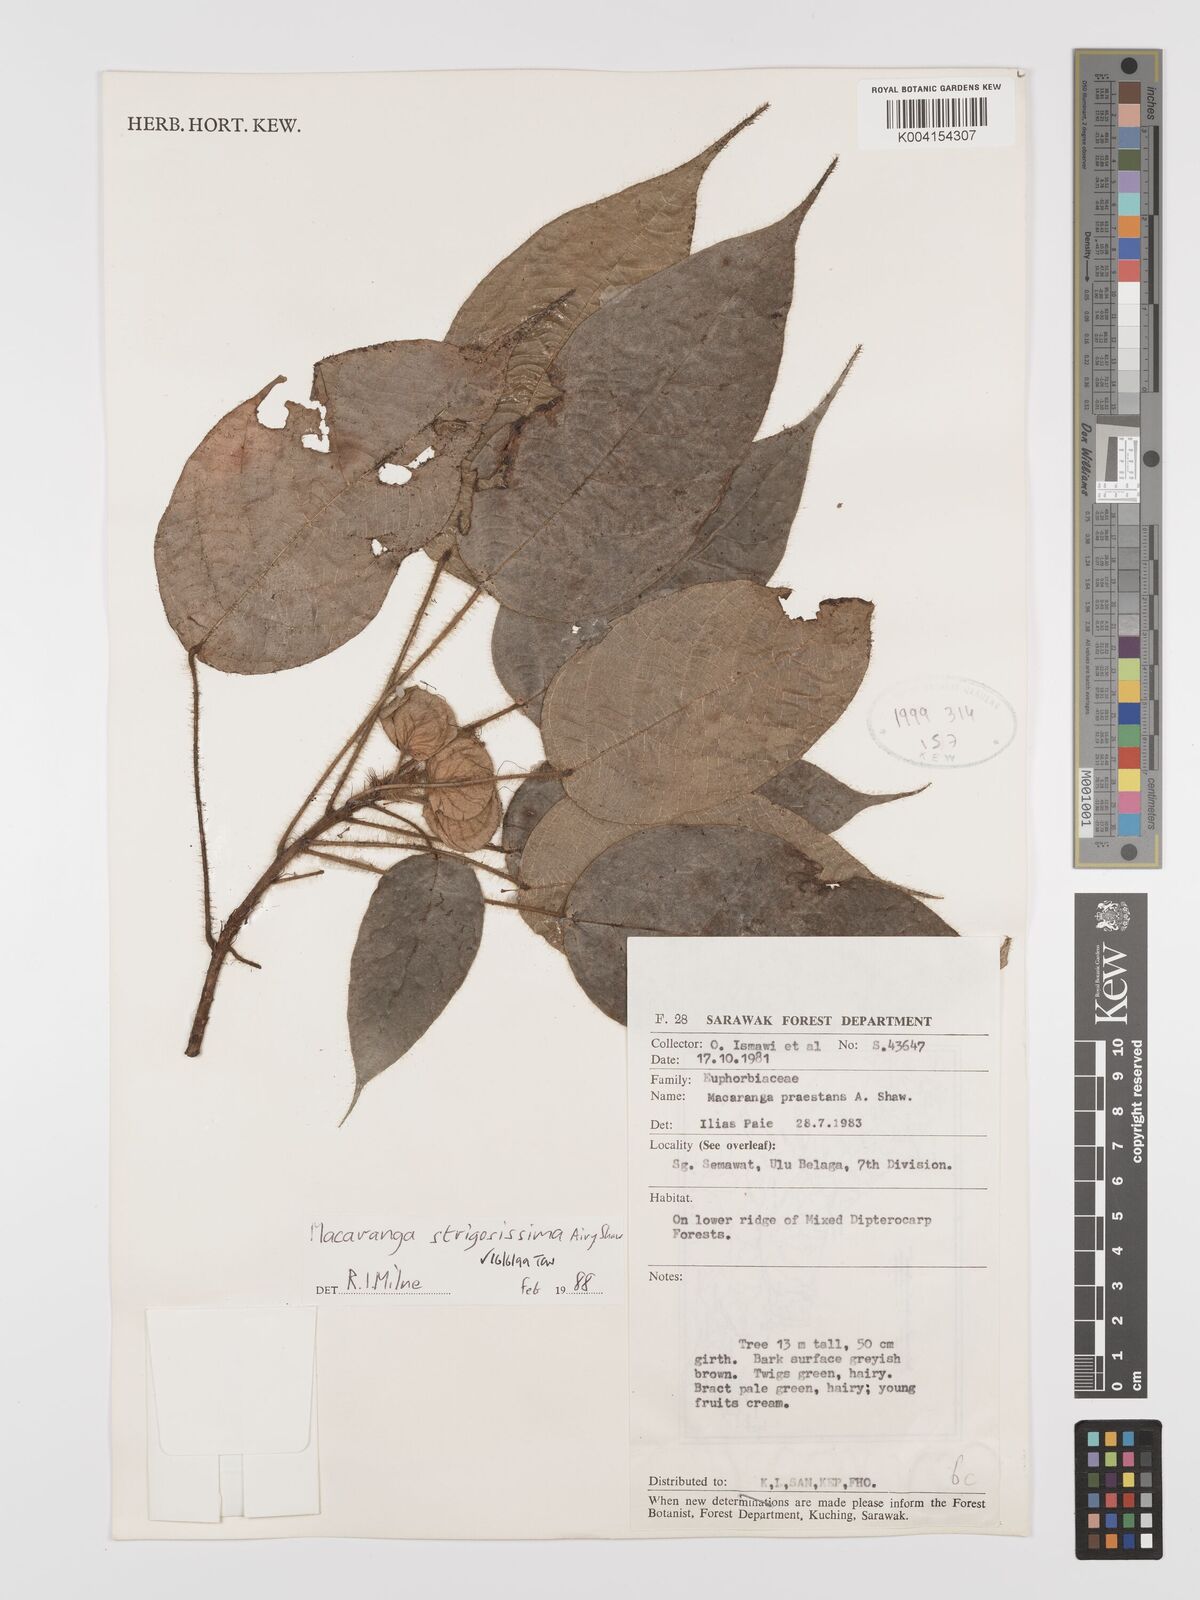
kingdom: Plantae
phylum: Tracheophyta
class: Magnoliopsida
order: Malpighiales
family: Euphorbiaceae
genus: Macaranga
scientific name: Macaranga strigosissima
